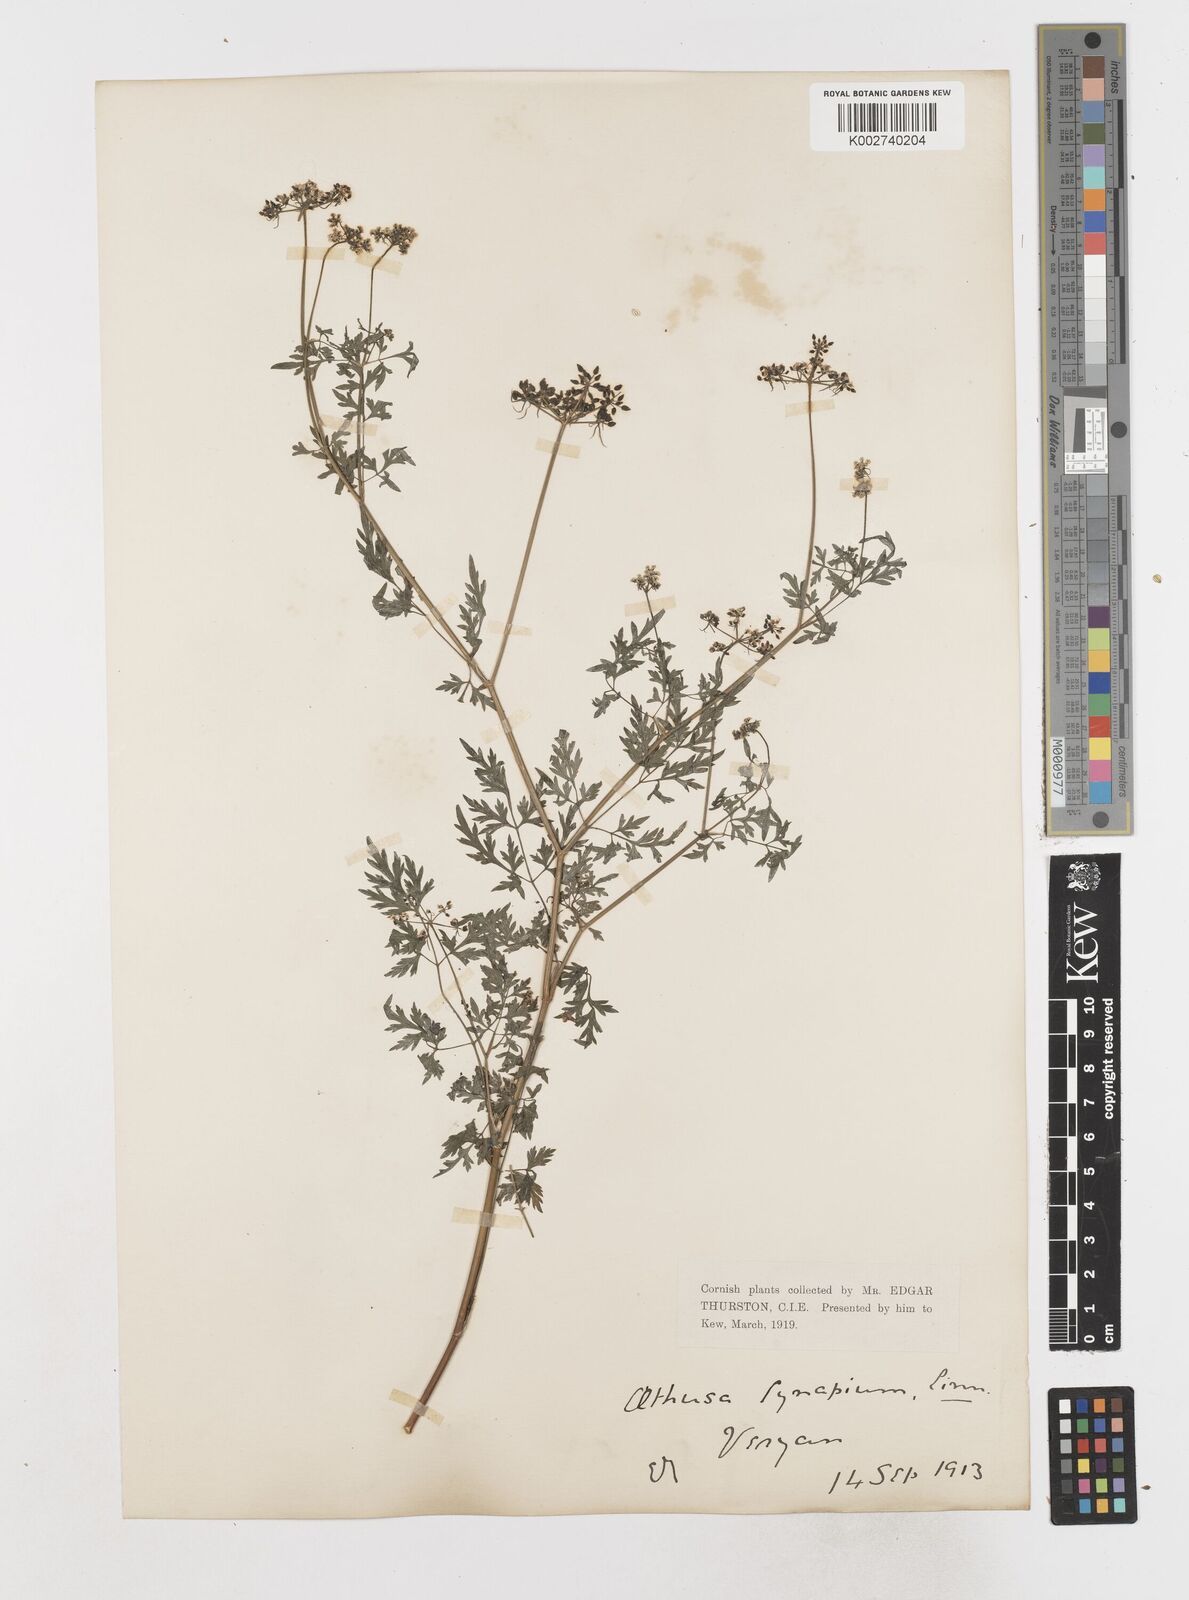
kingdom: Plantae
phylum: Tracheophyta
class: Magnoliopsida
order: Apiales
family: Apiaceae
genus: Aethusa
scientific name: Aethusa cynapium
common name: Fool's parsley
